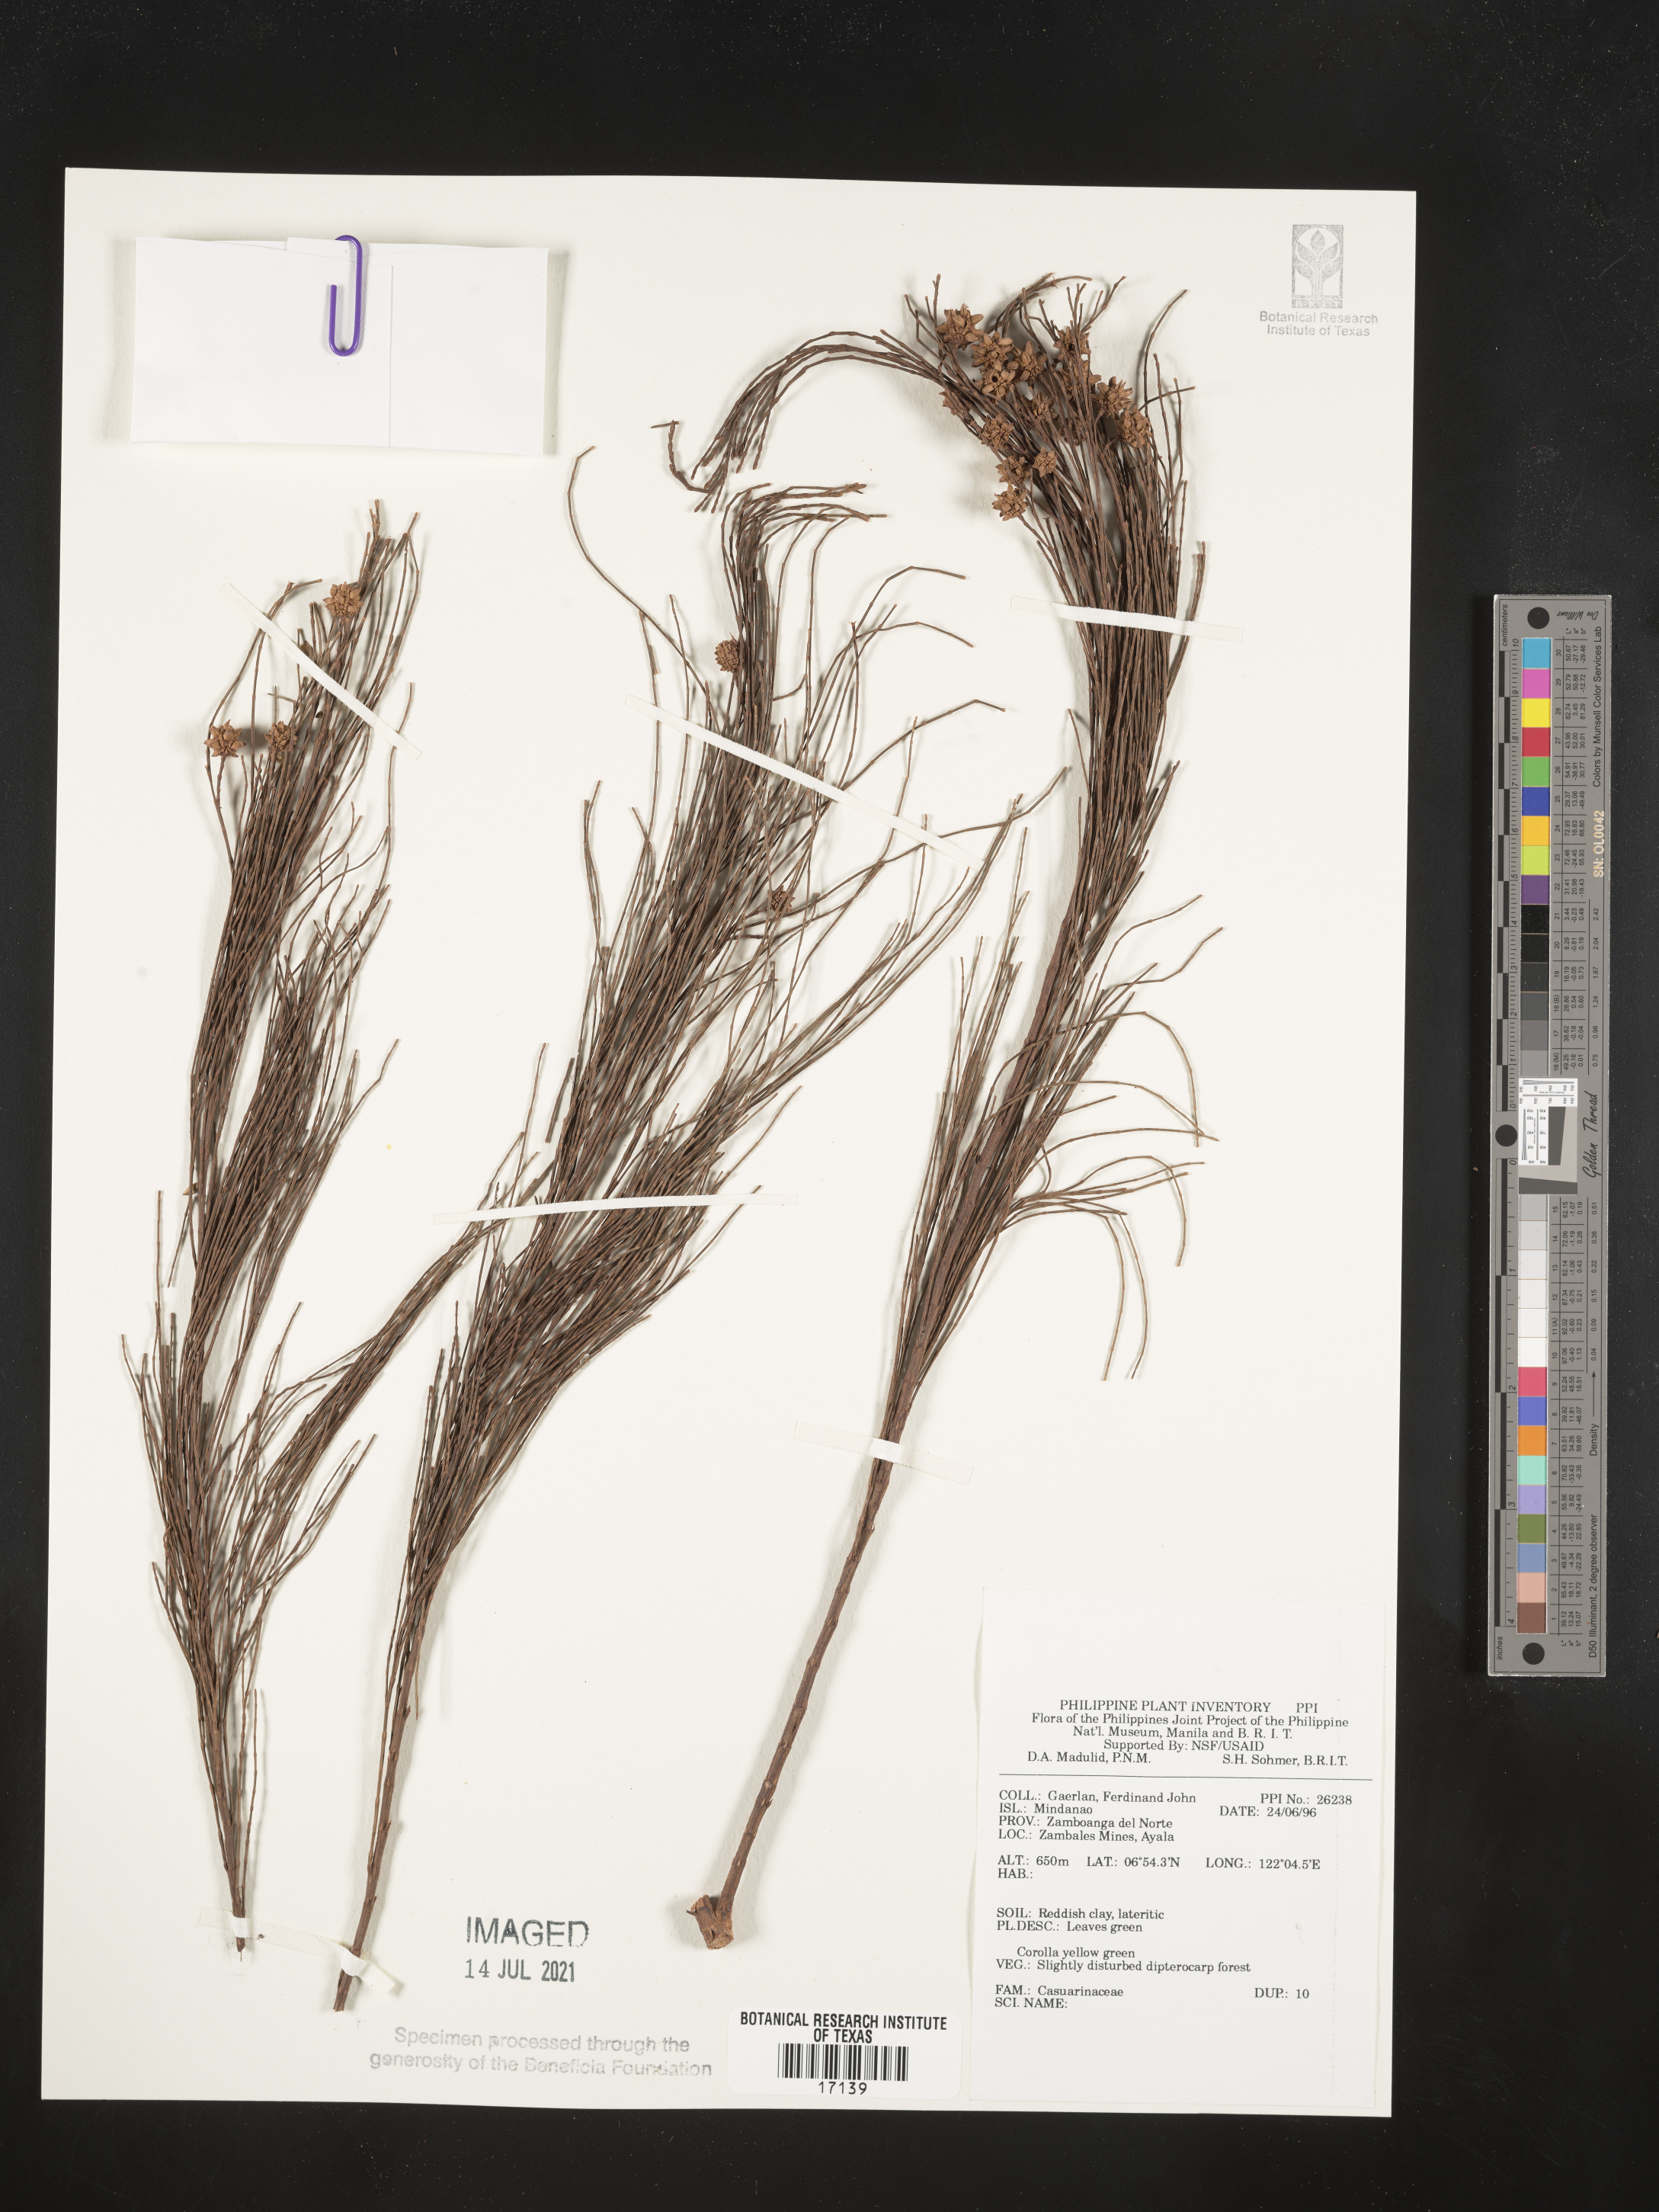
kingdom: Plantae
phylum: Tracheophyta
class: Magnoliopsida
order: Fagales
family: Casuarinaceae
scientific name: Casuarinaceae
